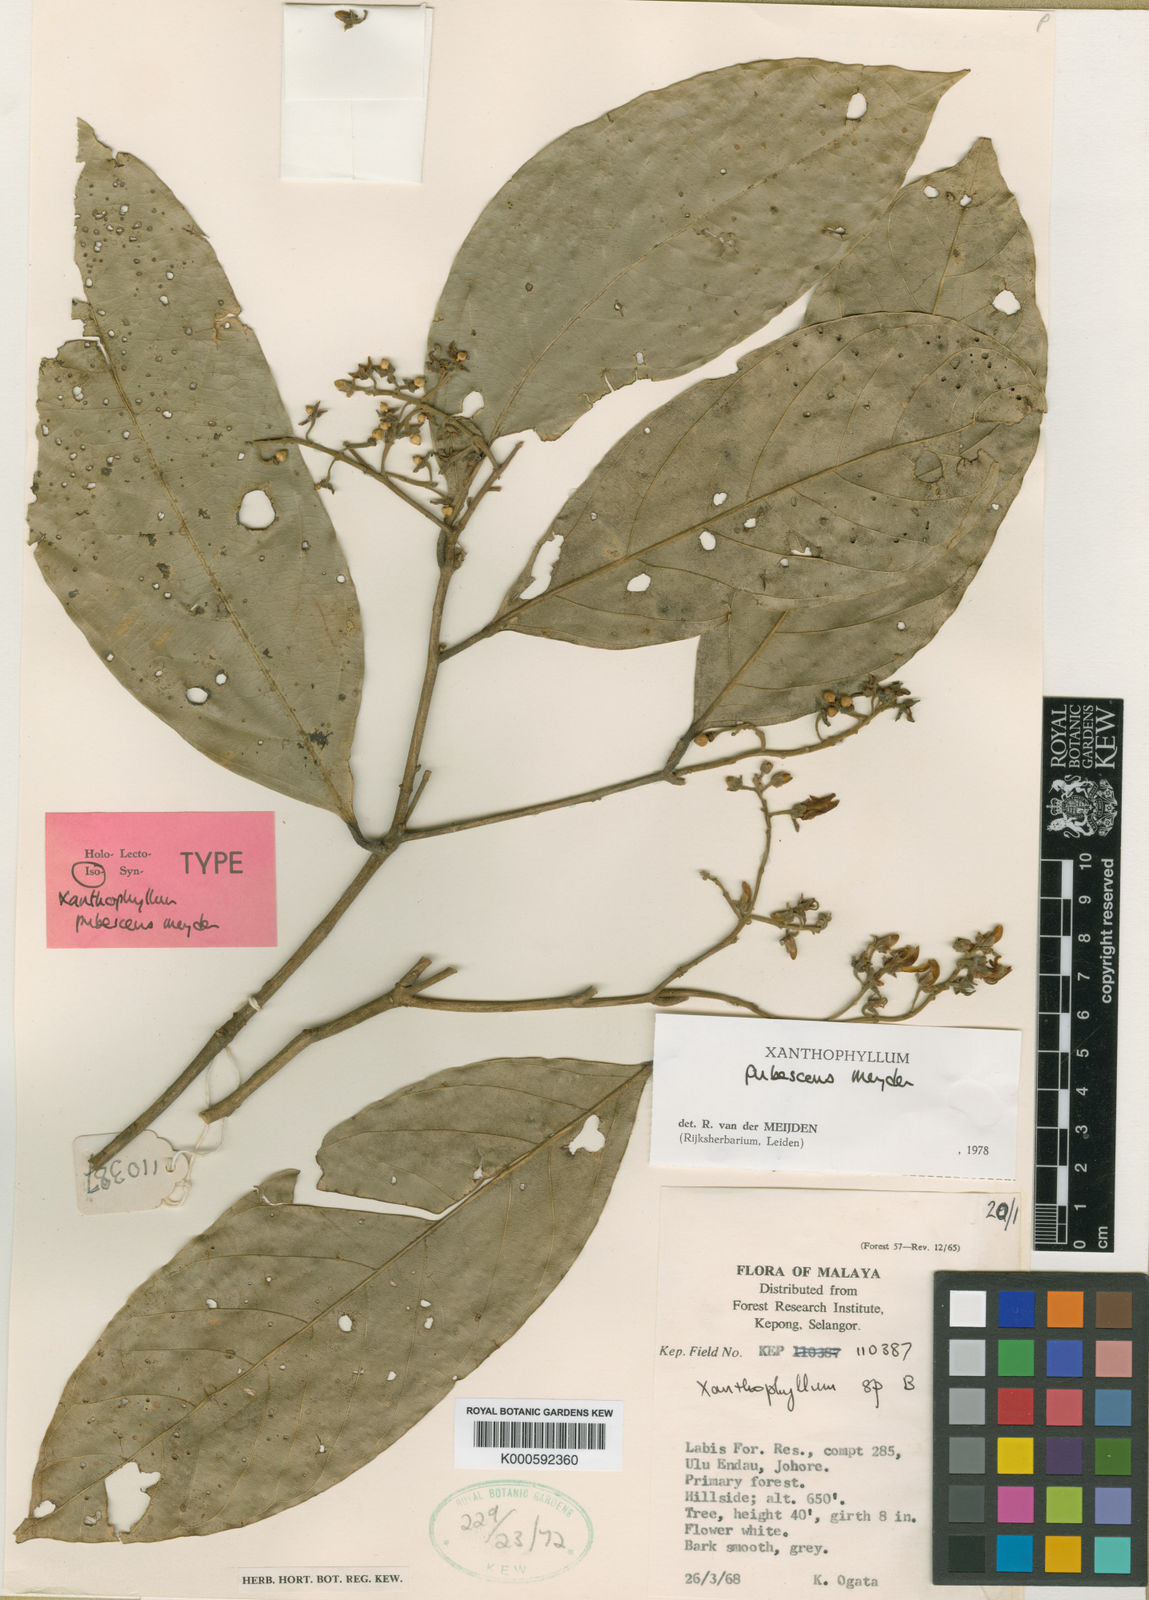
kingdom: Plantae
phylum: Tracheophyta
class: Magnoliopsida
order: Fabales
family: Polygalaceae
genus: Xanthophyllum
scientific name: Xanthophyllum pubescens
